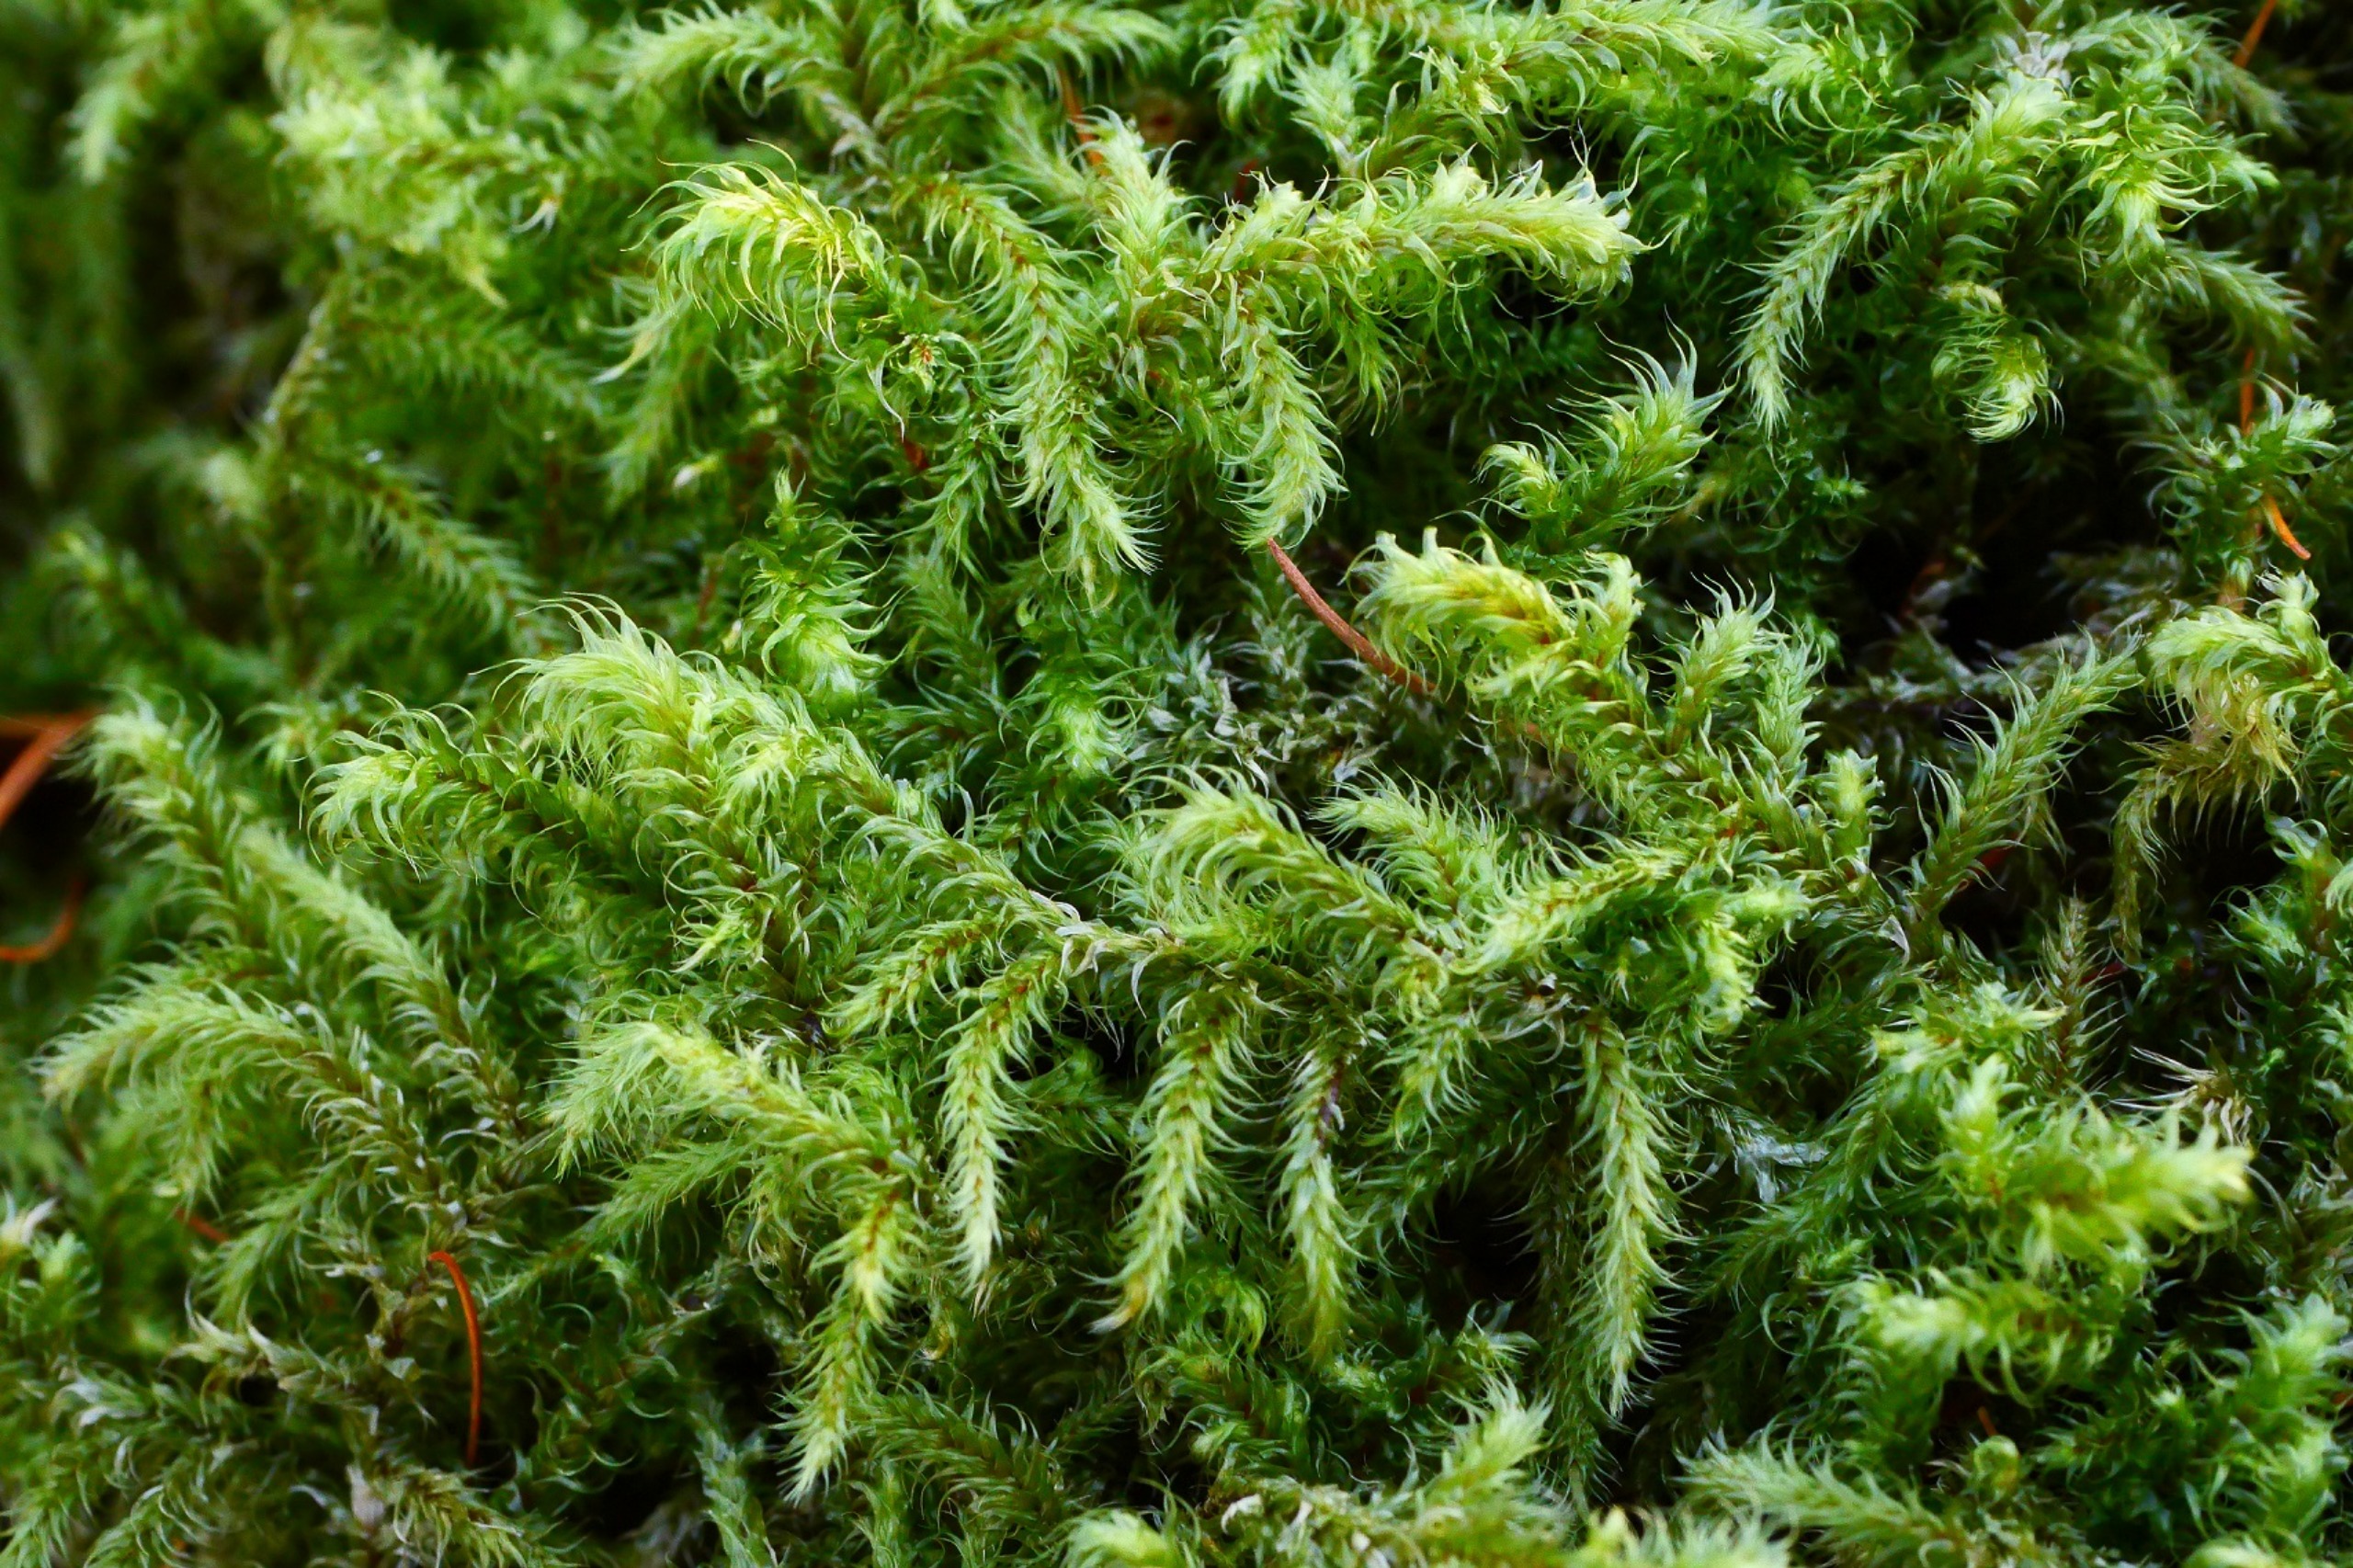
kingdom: Plantae
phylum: Bryophyta
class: Bryopsida
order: Hypnales
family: Hylocomiaceae
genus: Rhytidiadelphus
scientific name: Rhytidiadelphus loreus
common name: Ulvefod-kransemos
